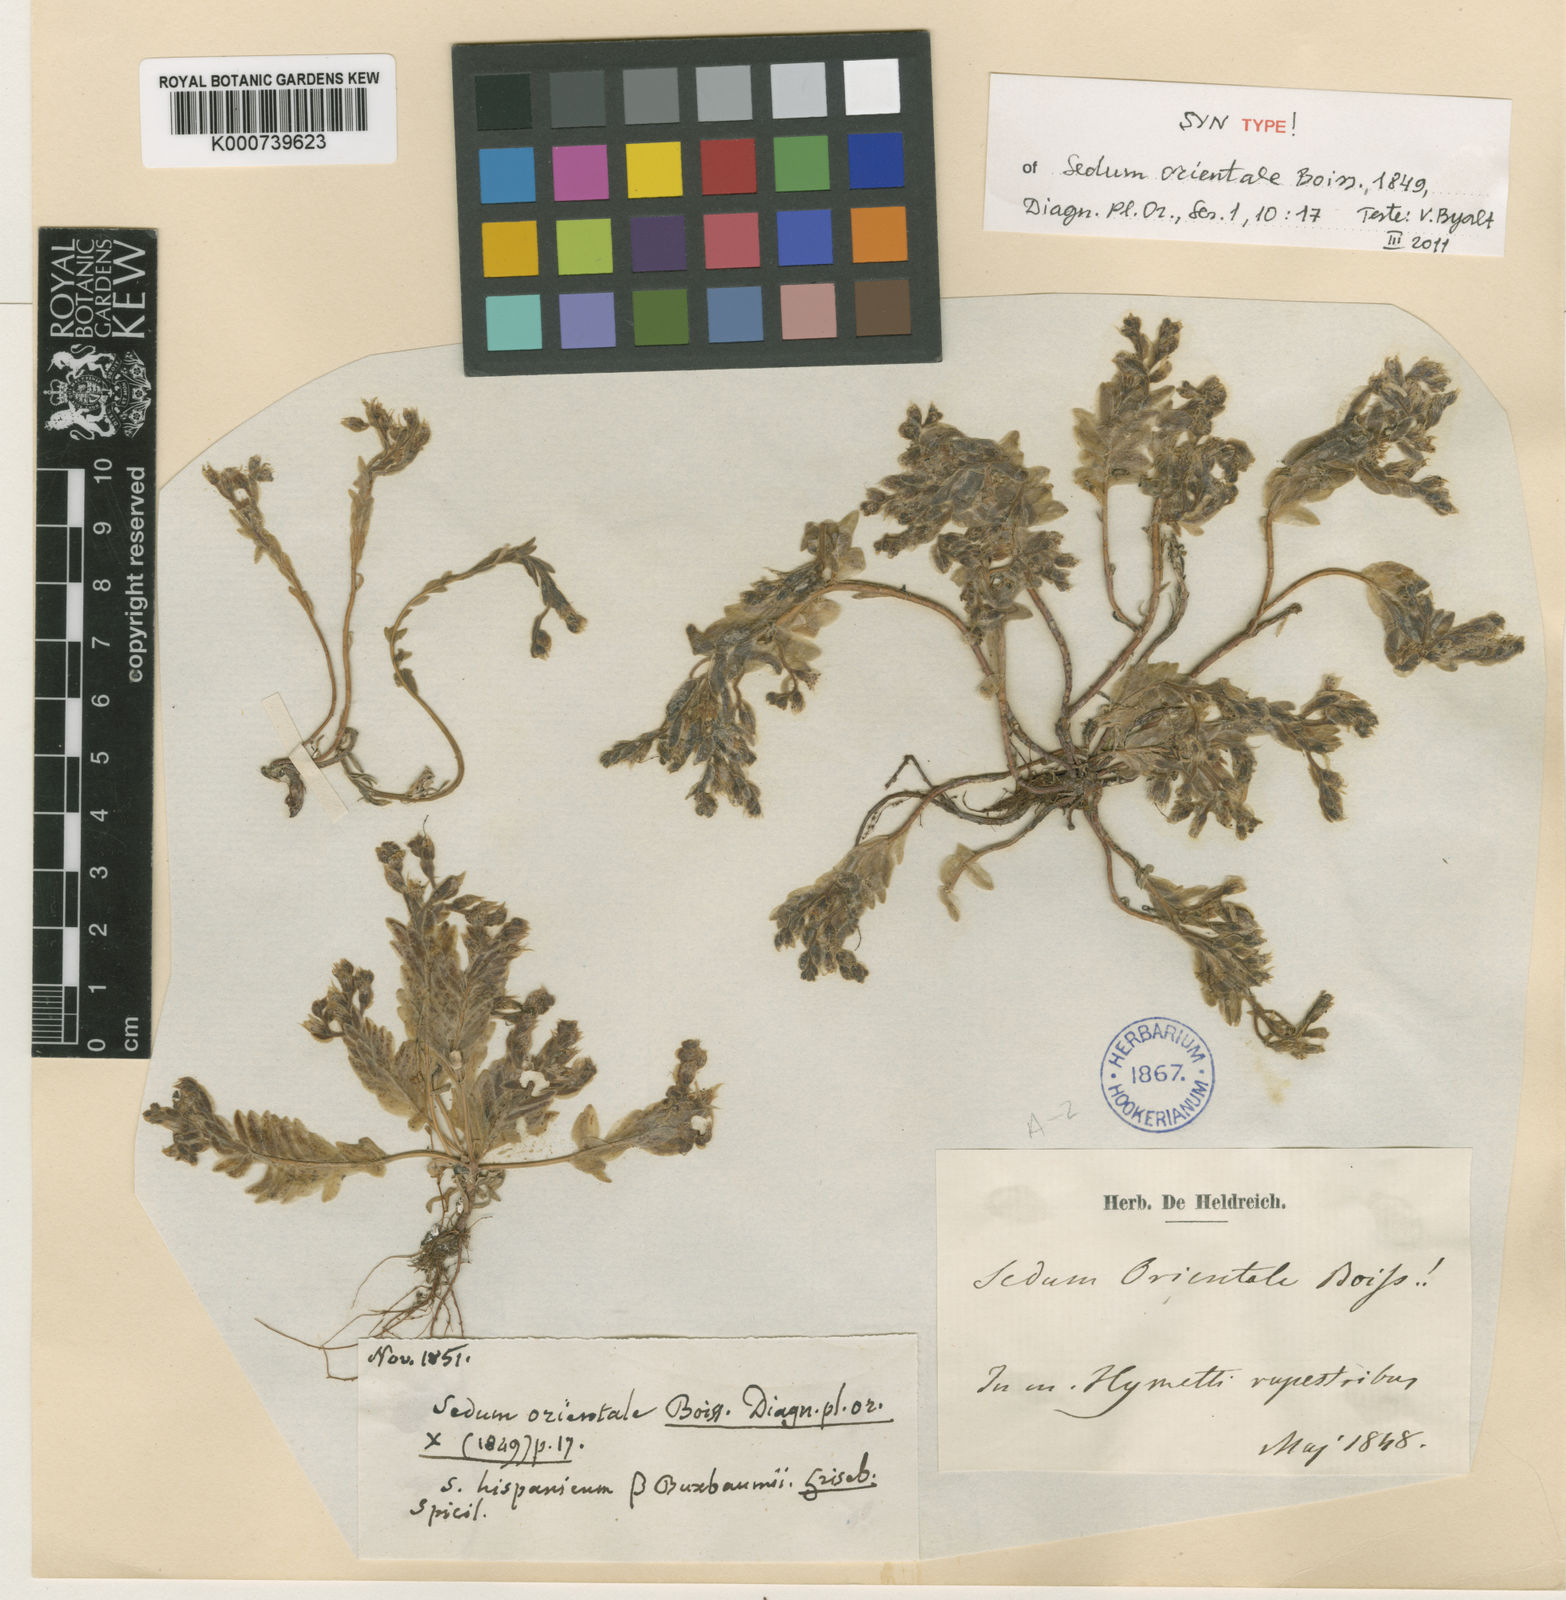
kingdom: Plantae
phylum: Tracheophyta
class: Magnoliopsida
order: Saxifragales
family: Crassulaceae
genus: Sedum
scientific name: Sedum hispanicum
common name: Spanish stonecrop
